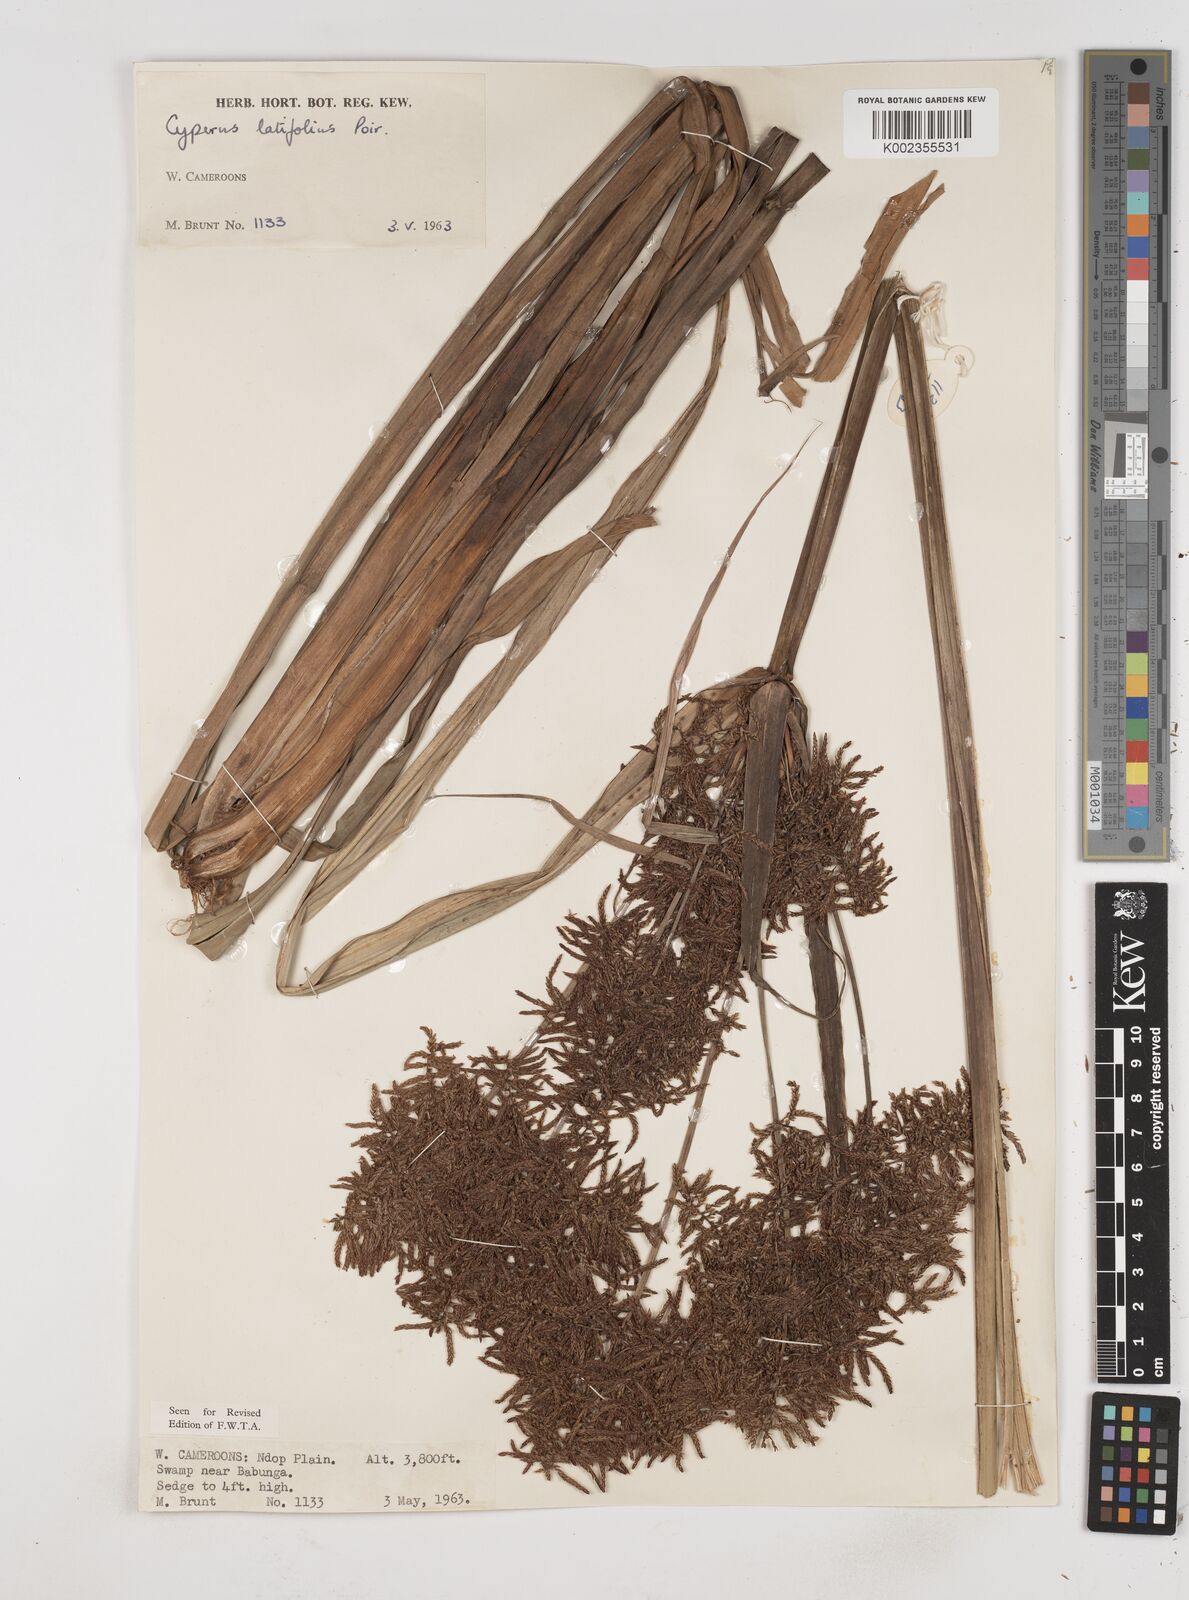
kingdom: Plantae
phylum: Tracheophyta
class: Liliopsida
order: Poales
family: Cyperaceae
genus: Cyperus
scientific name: Cyperus latifolius
